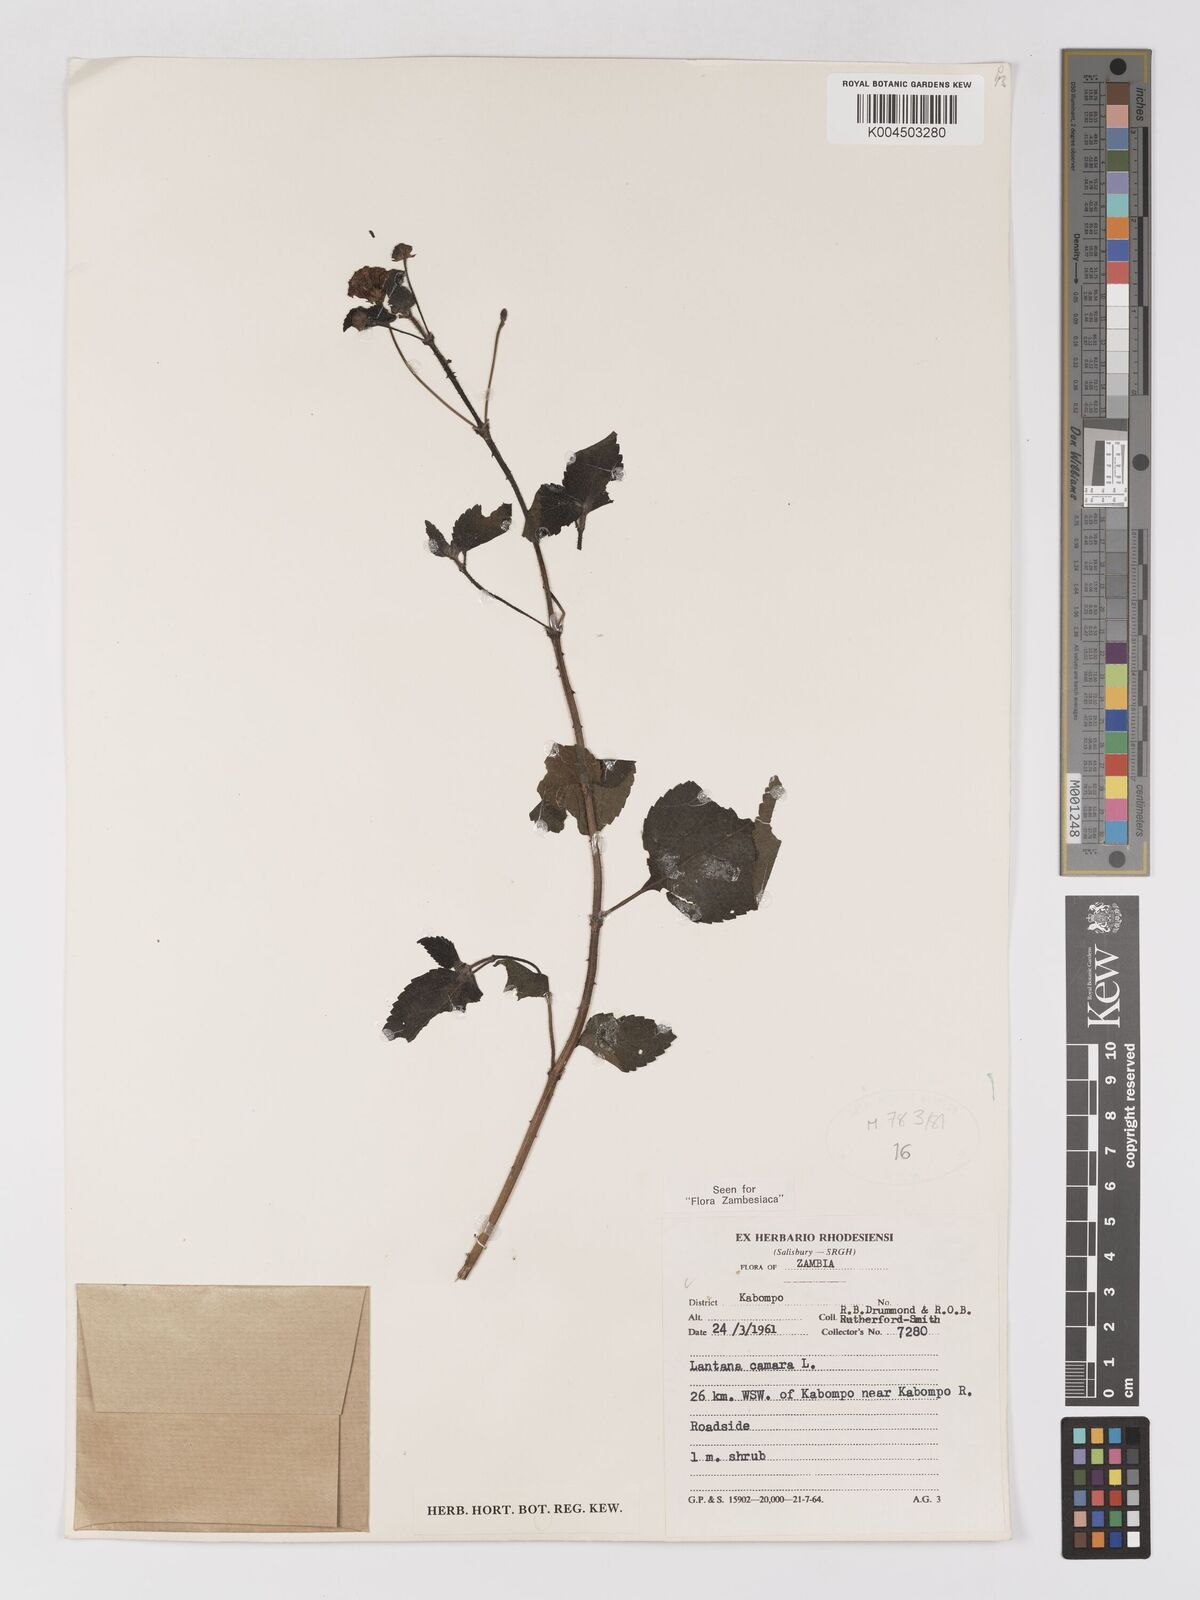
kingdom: Plantae
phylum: Tracheophyta
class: Magnoliopsida
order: Lamiales
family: Verbenaceae
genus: Lantana
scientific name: Lantana camara
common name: Lantana
